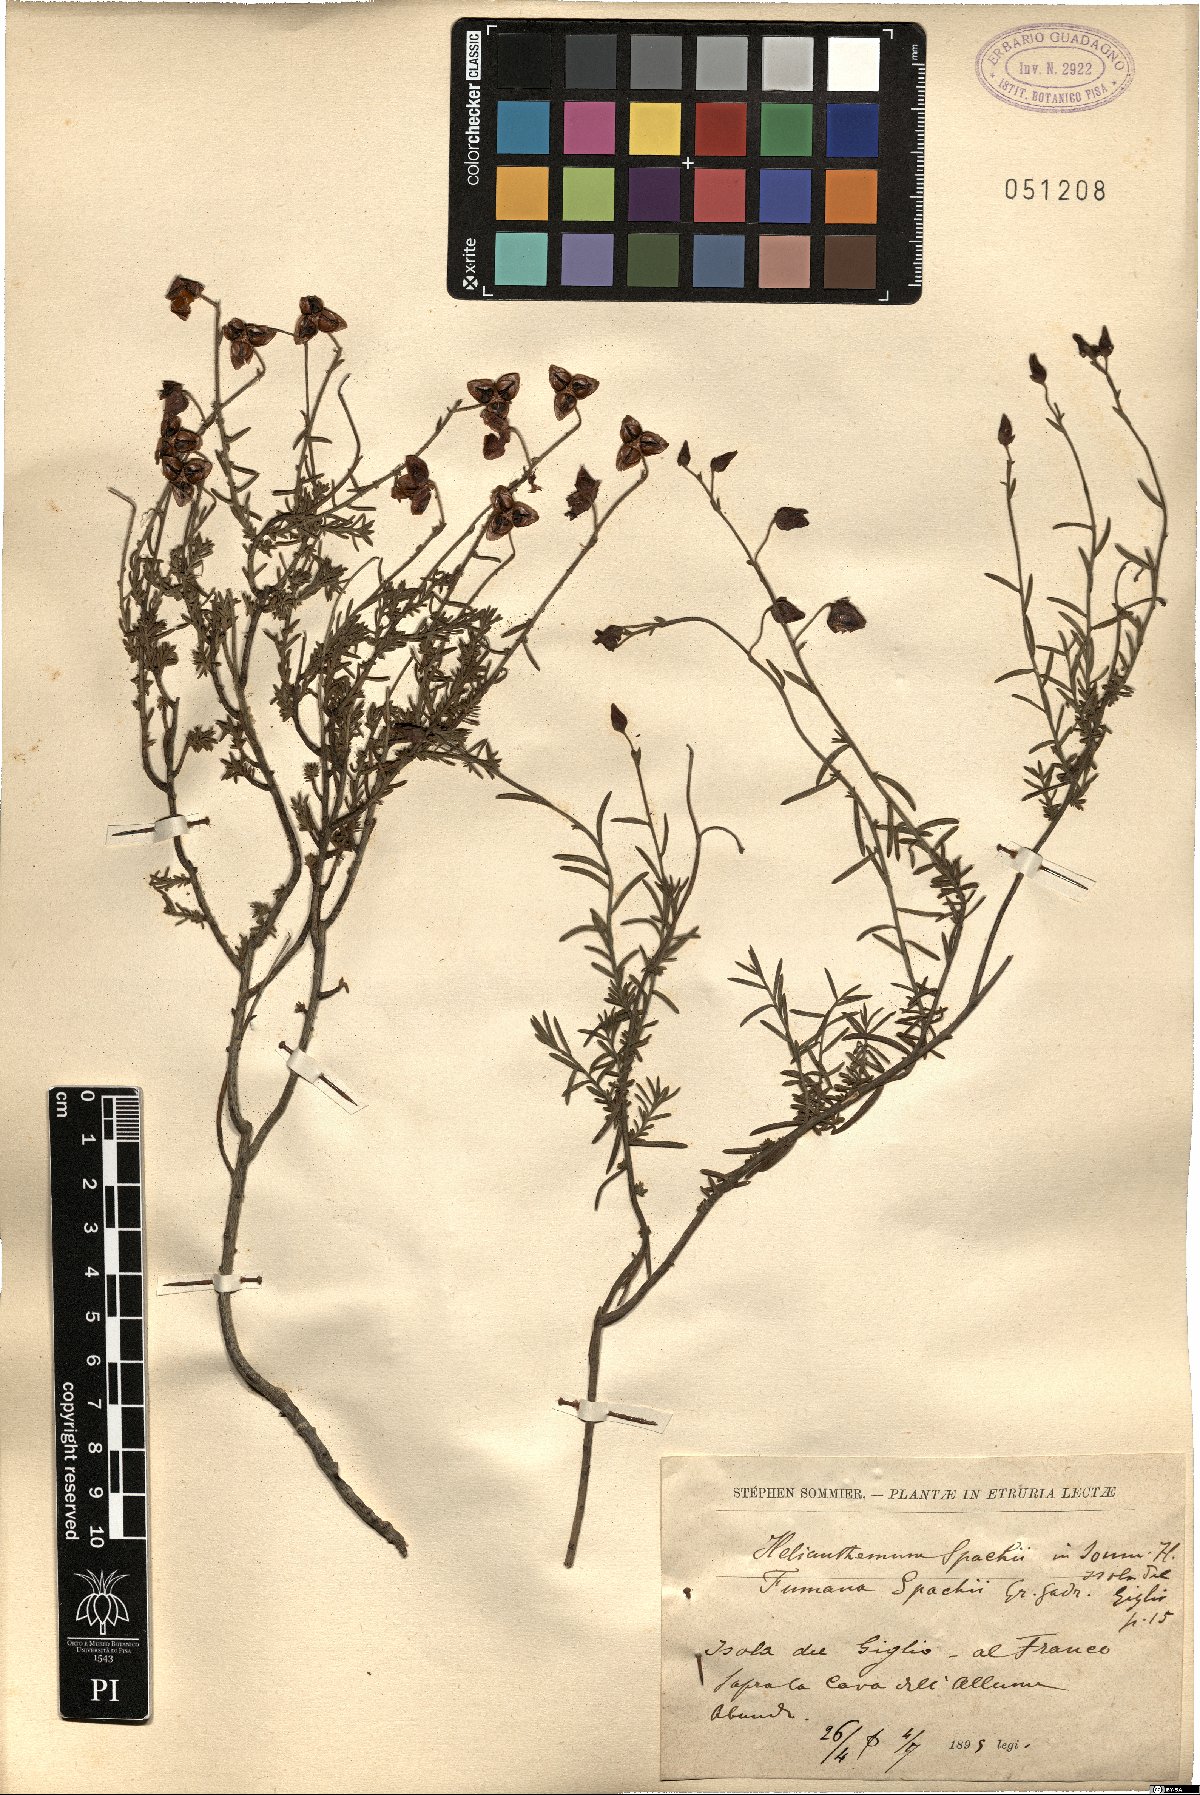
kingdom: Plantae
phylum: Tracheophyta
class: Magnoliopsida
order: Malvales
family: Cistaceae
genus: Fumana
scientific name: Fumana ericifolia
